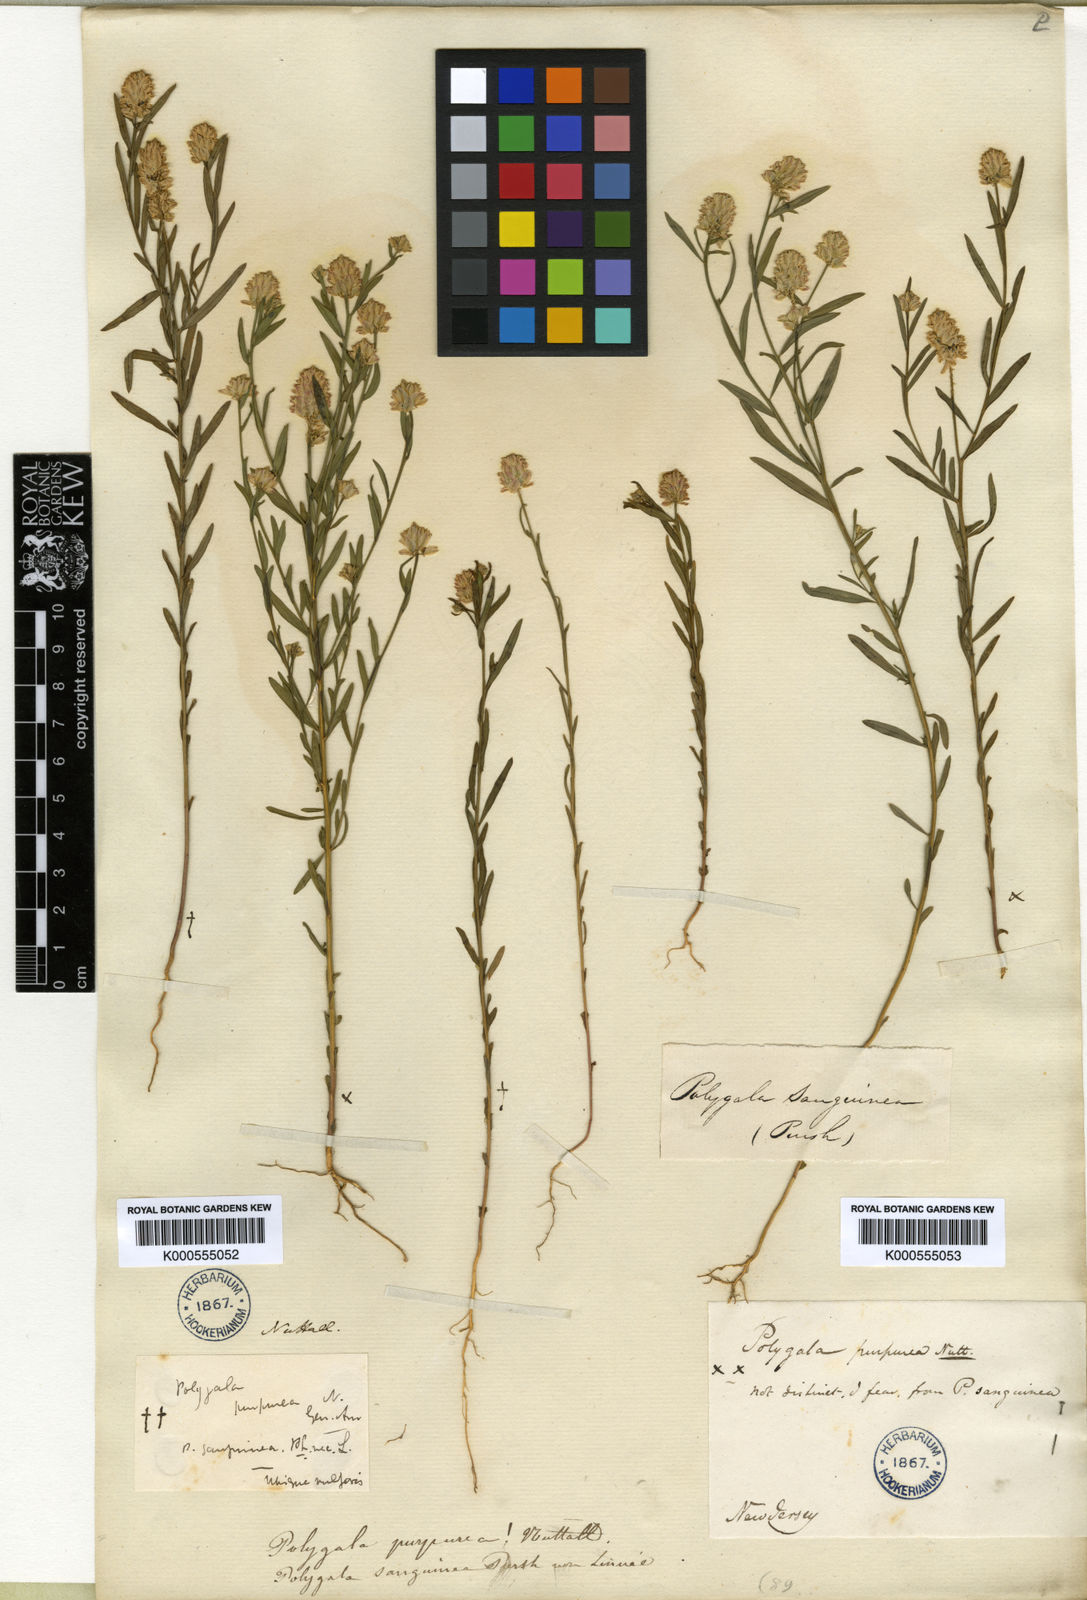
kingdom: Plantae
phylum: Tracheophyta
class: Magnoliopsida
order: Fabales
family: Polygalaceae
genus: Polygala
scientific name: Polygala sanguinea
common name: Blood milkwort
